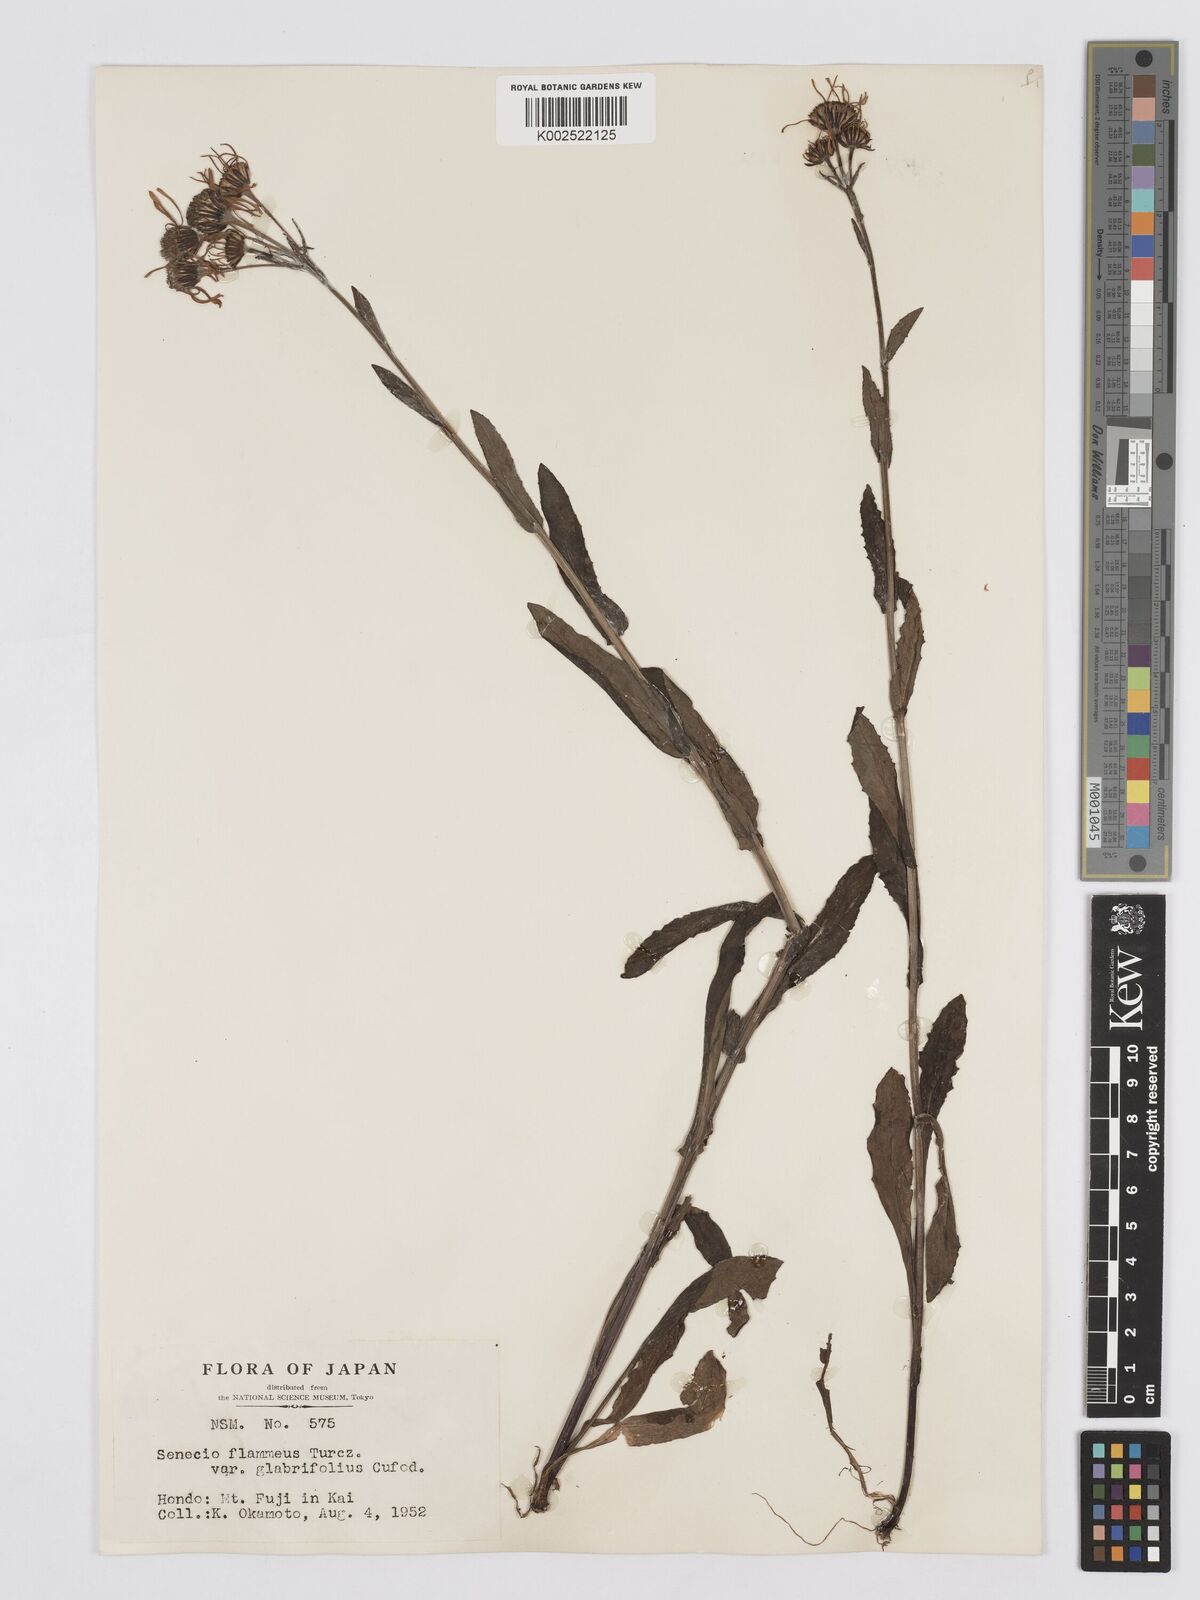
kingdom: Plantae
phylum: Tracheophyta
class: Magnoliopsida
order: Asterales
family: Asteraceae
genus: Tephroseris
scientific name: Tephroseris flammea
